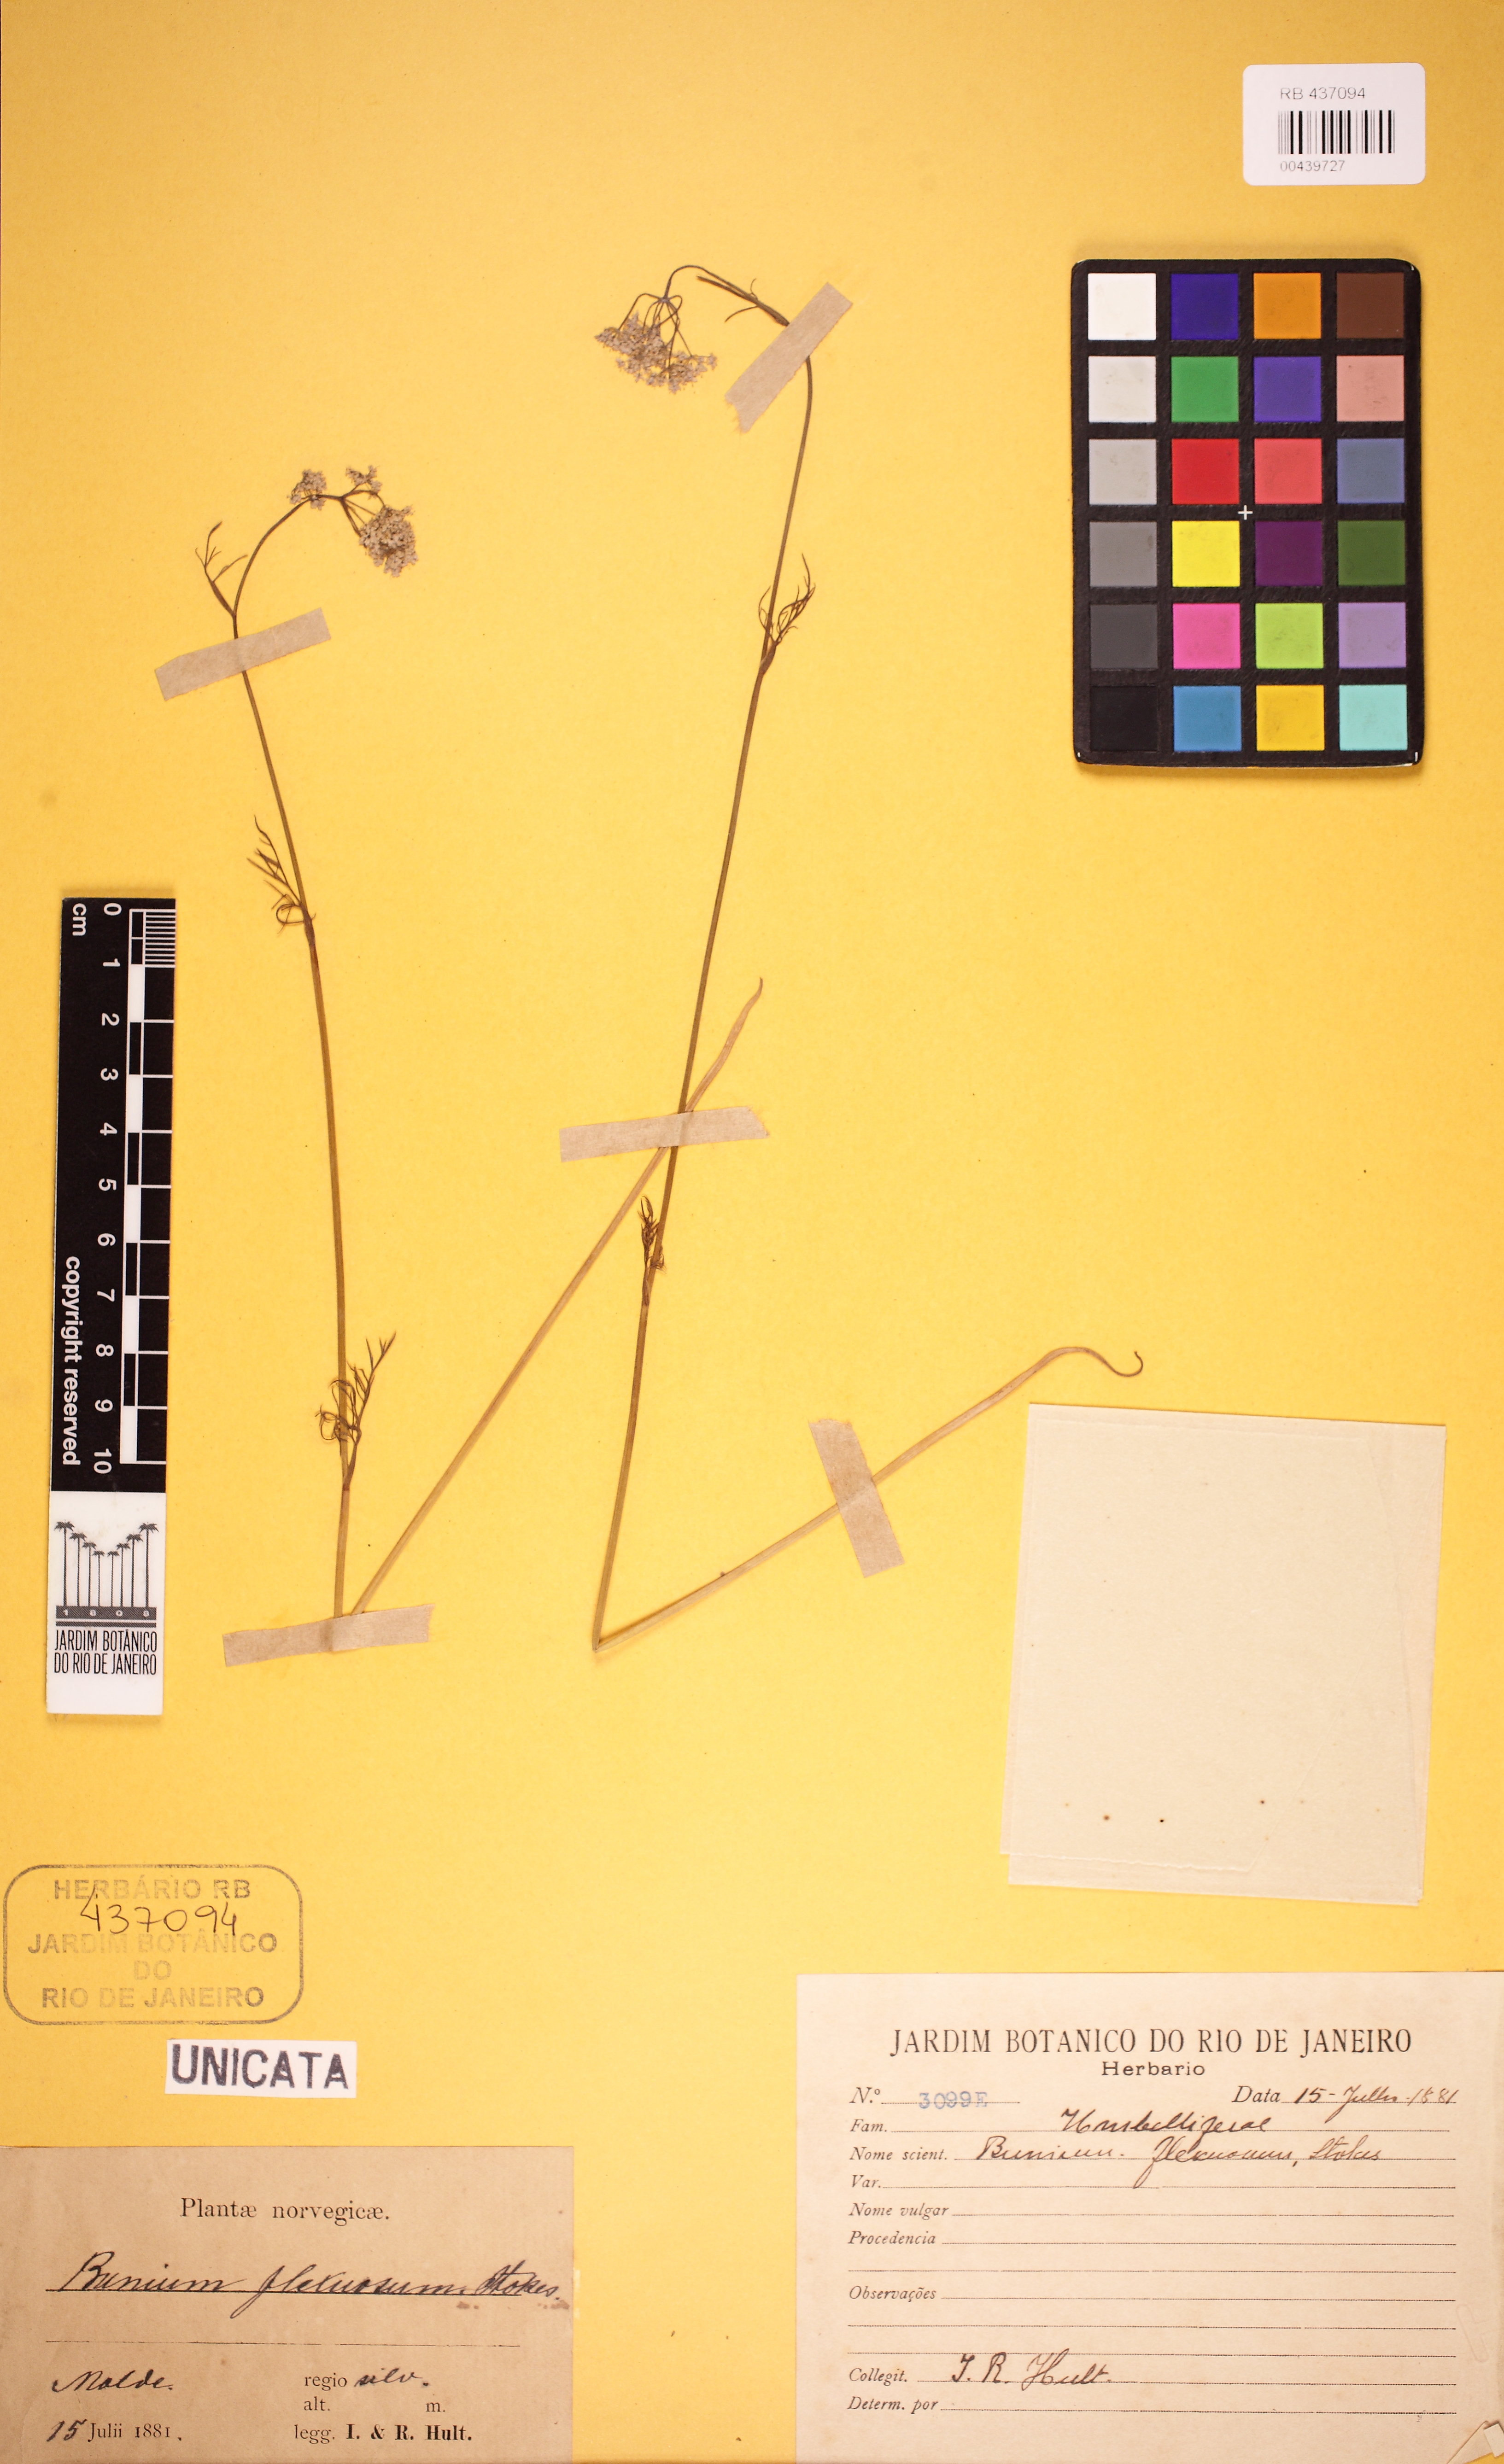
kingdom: Plantae
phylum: Tracheophyta
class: Magnoliopsida
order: Apiales
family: Araliaceae
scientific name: Araliaceae
